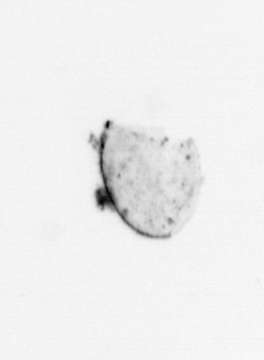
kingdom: Chromista
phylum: Ochrophyta
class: Bacillariophyceae
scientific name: Bacillariophyceae
